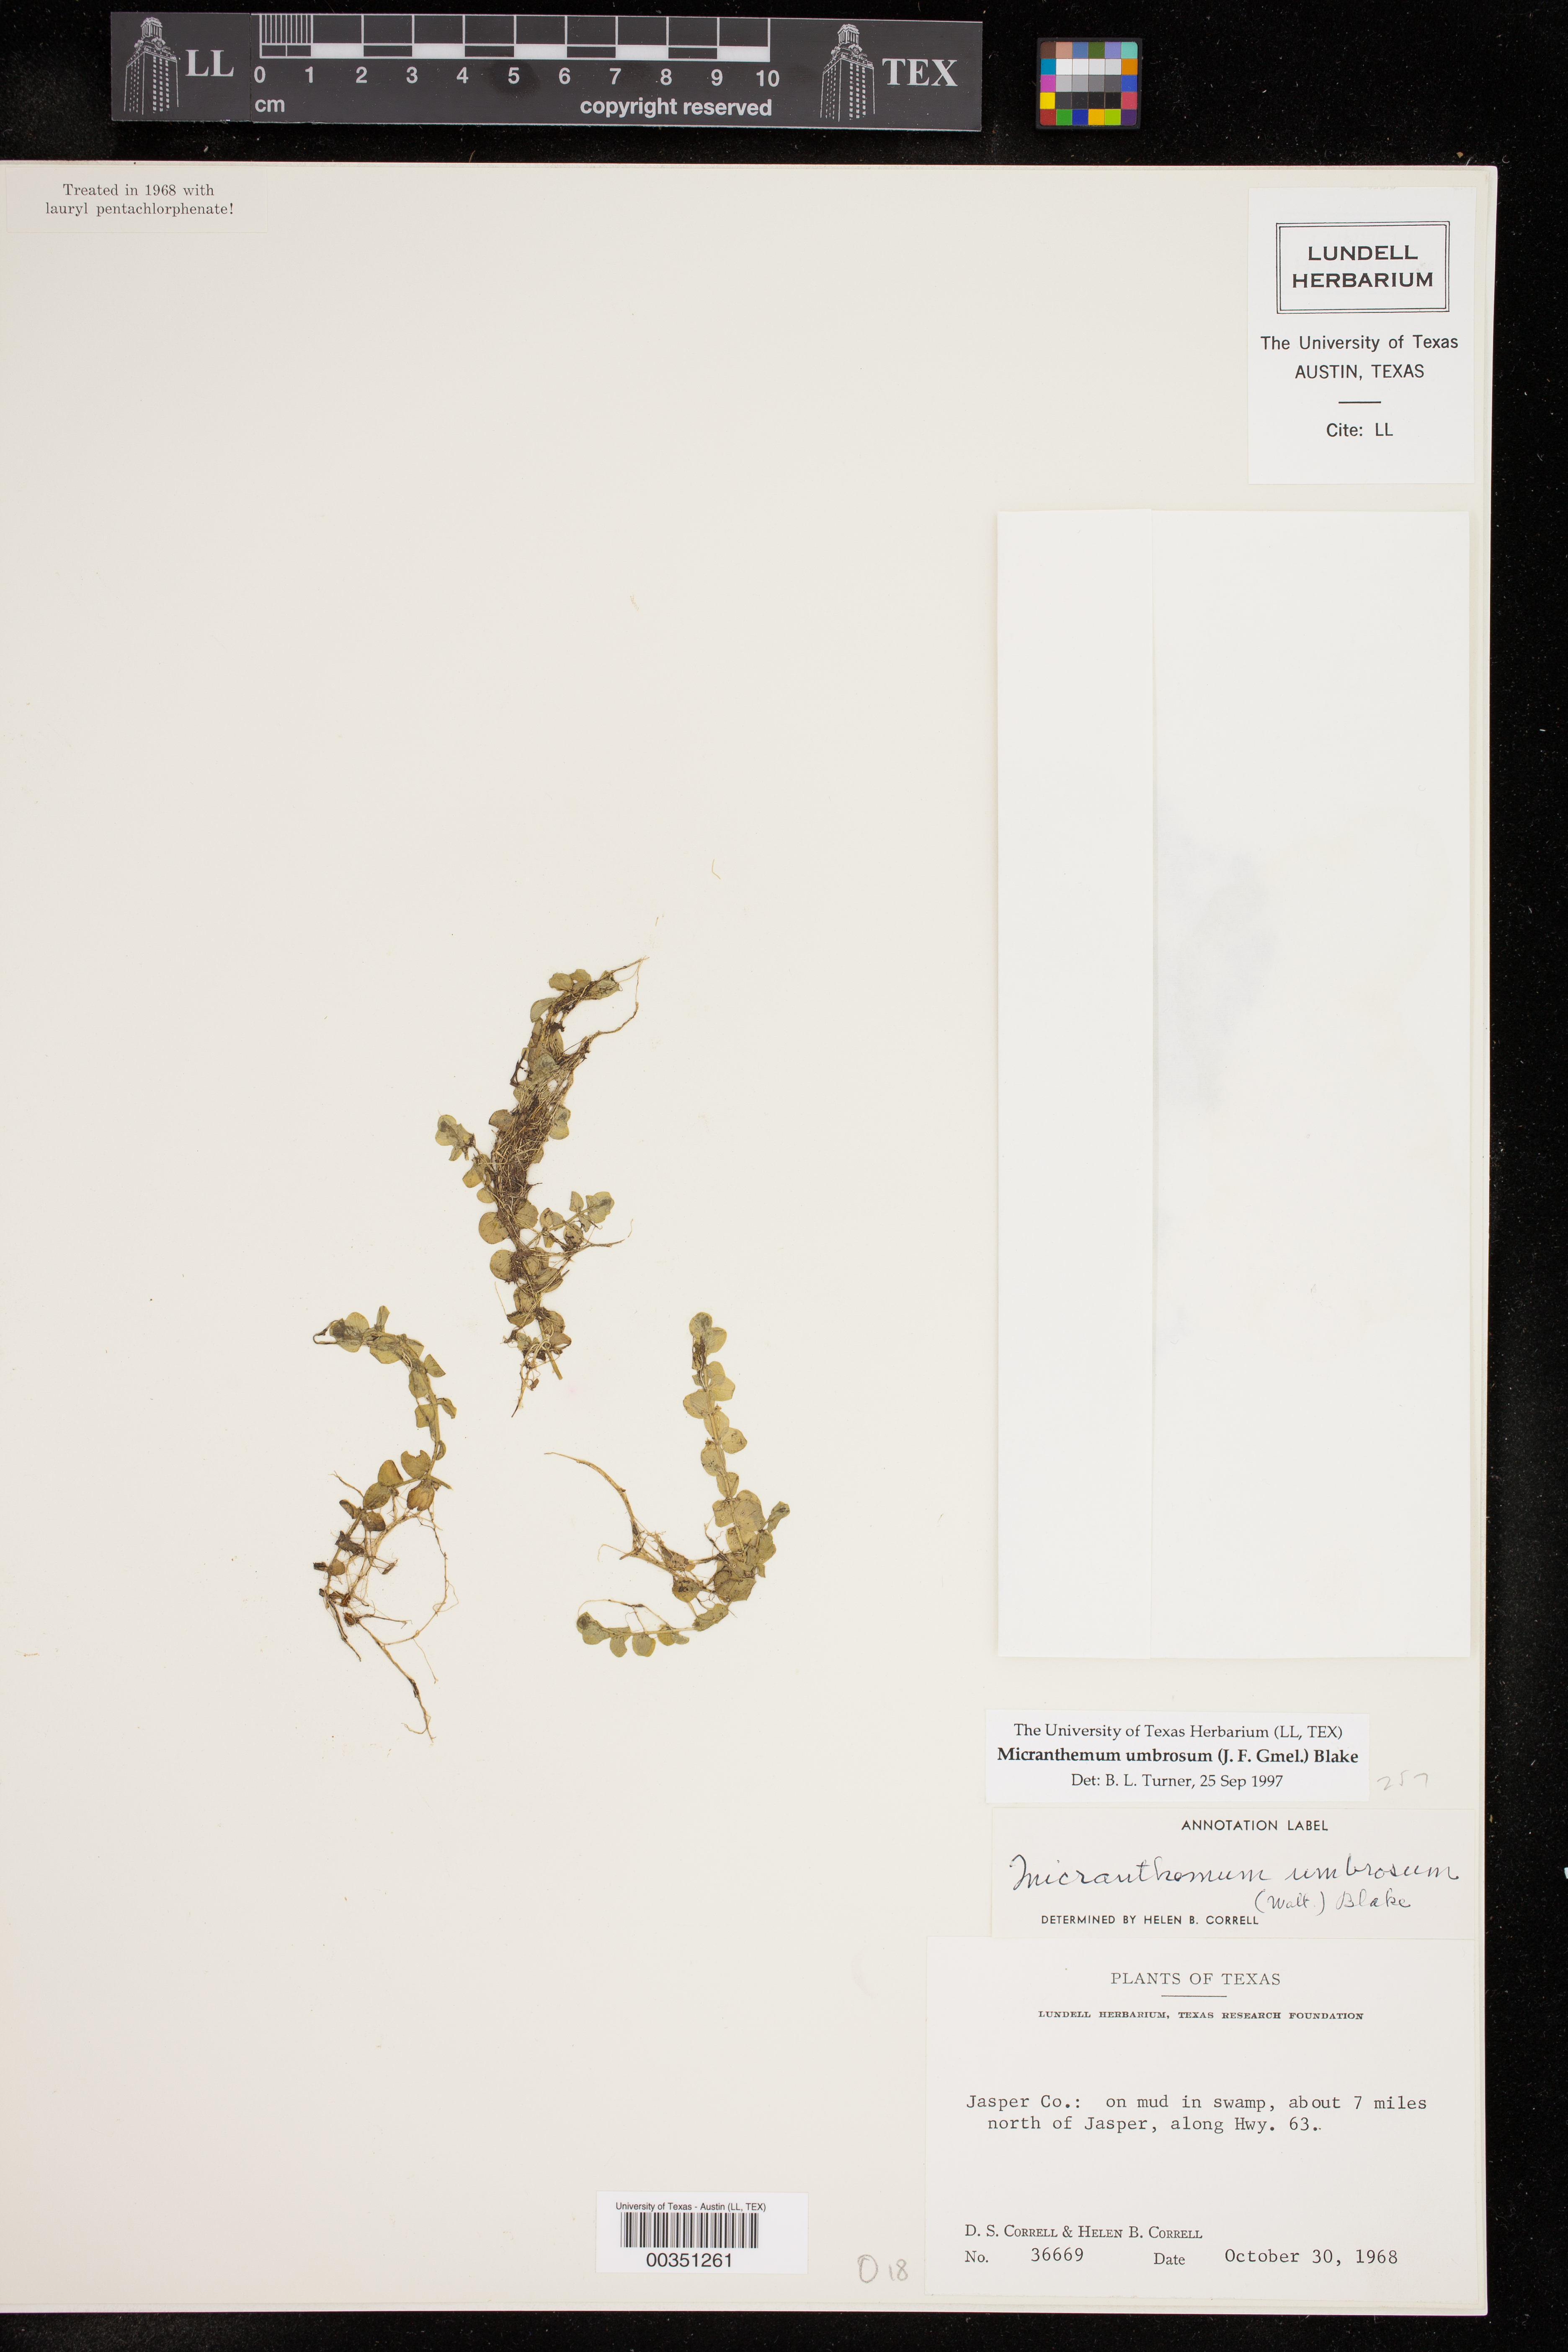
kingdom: Plantae
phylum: Tracheophyta
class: Magnoliopsida
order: Lamiales
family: Linderniaceae
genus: Micranthemum
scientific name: Micranthemum umbrosum
